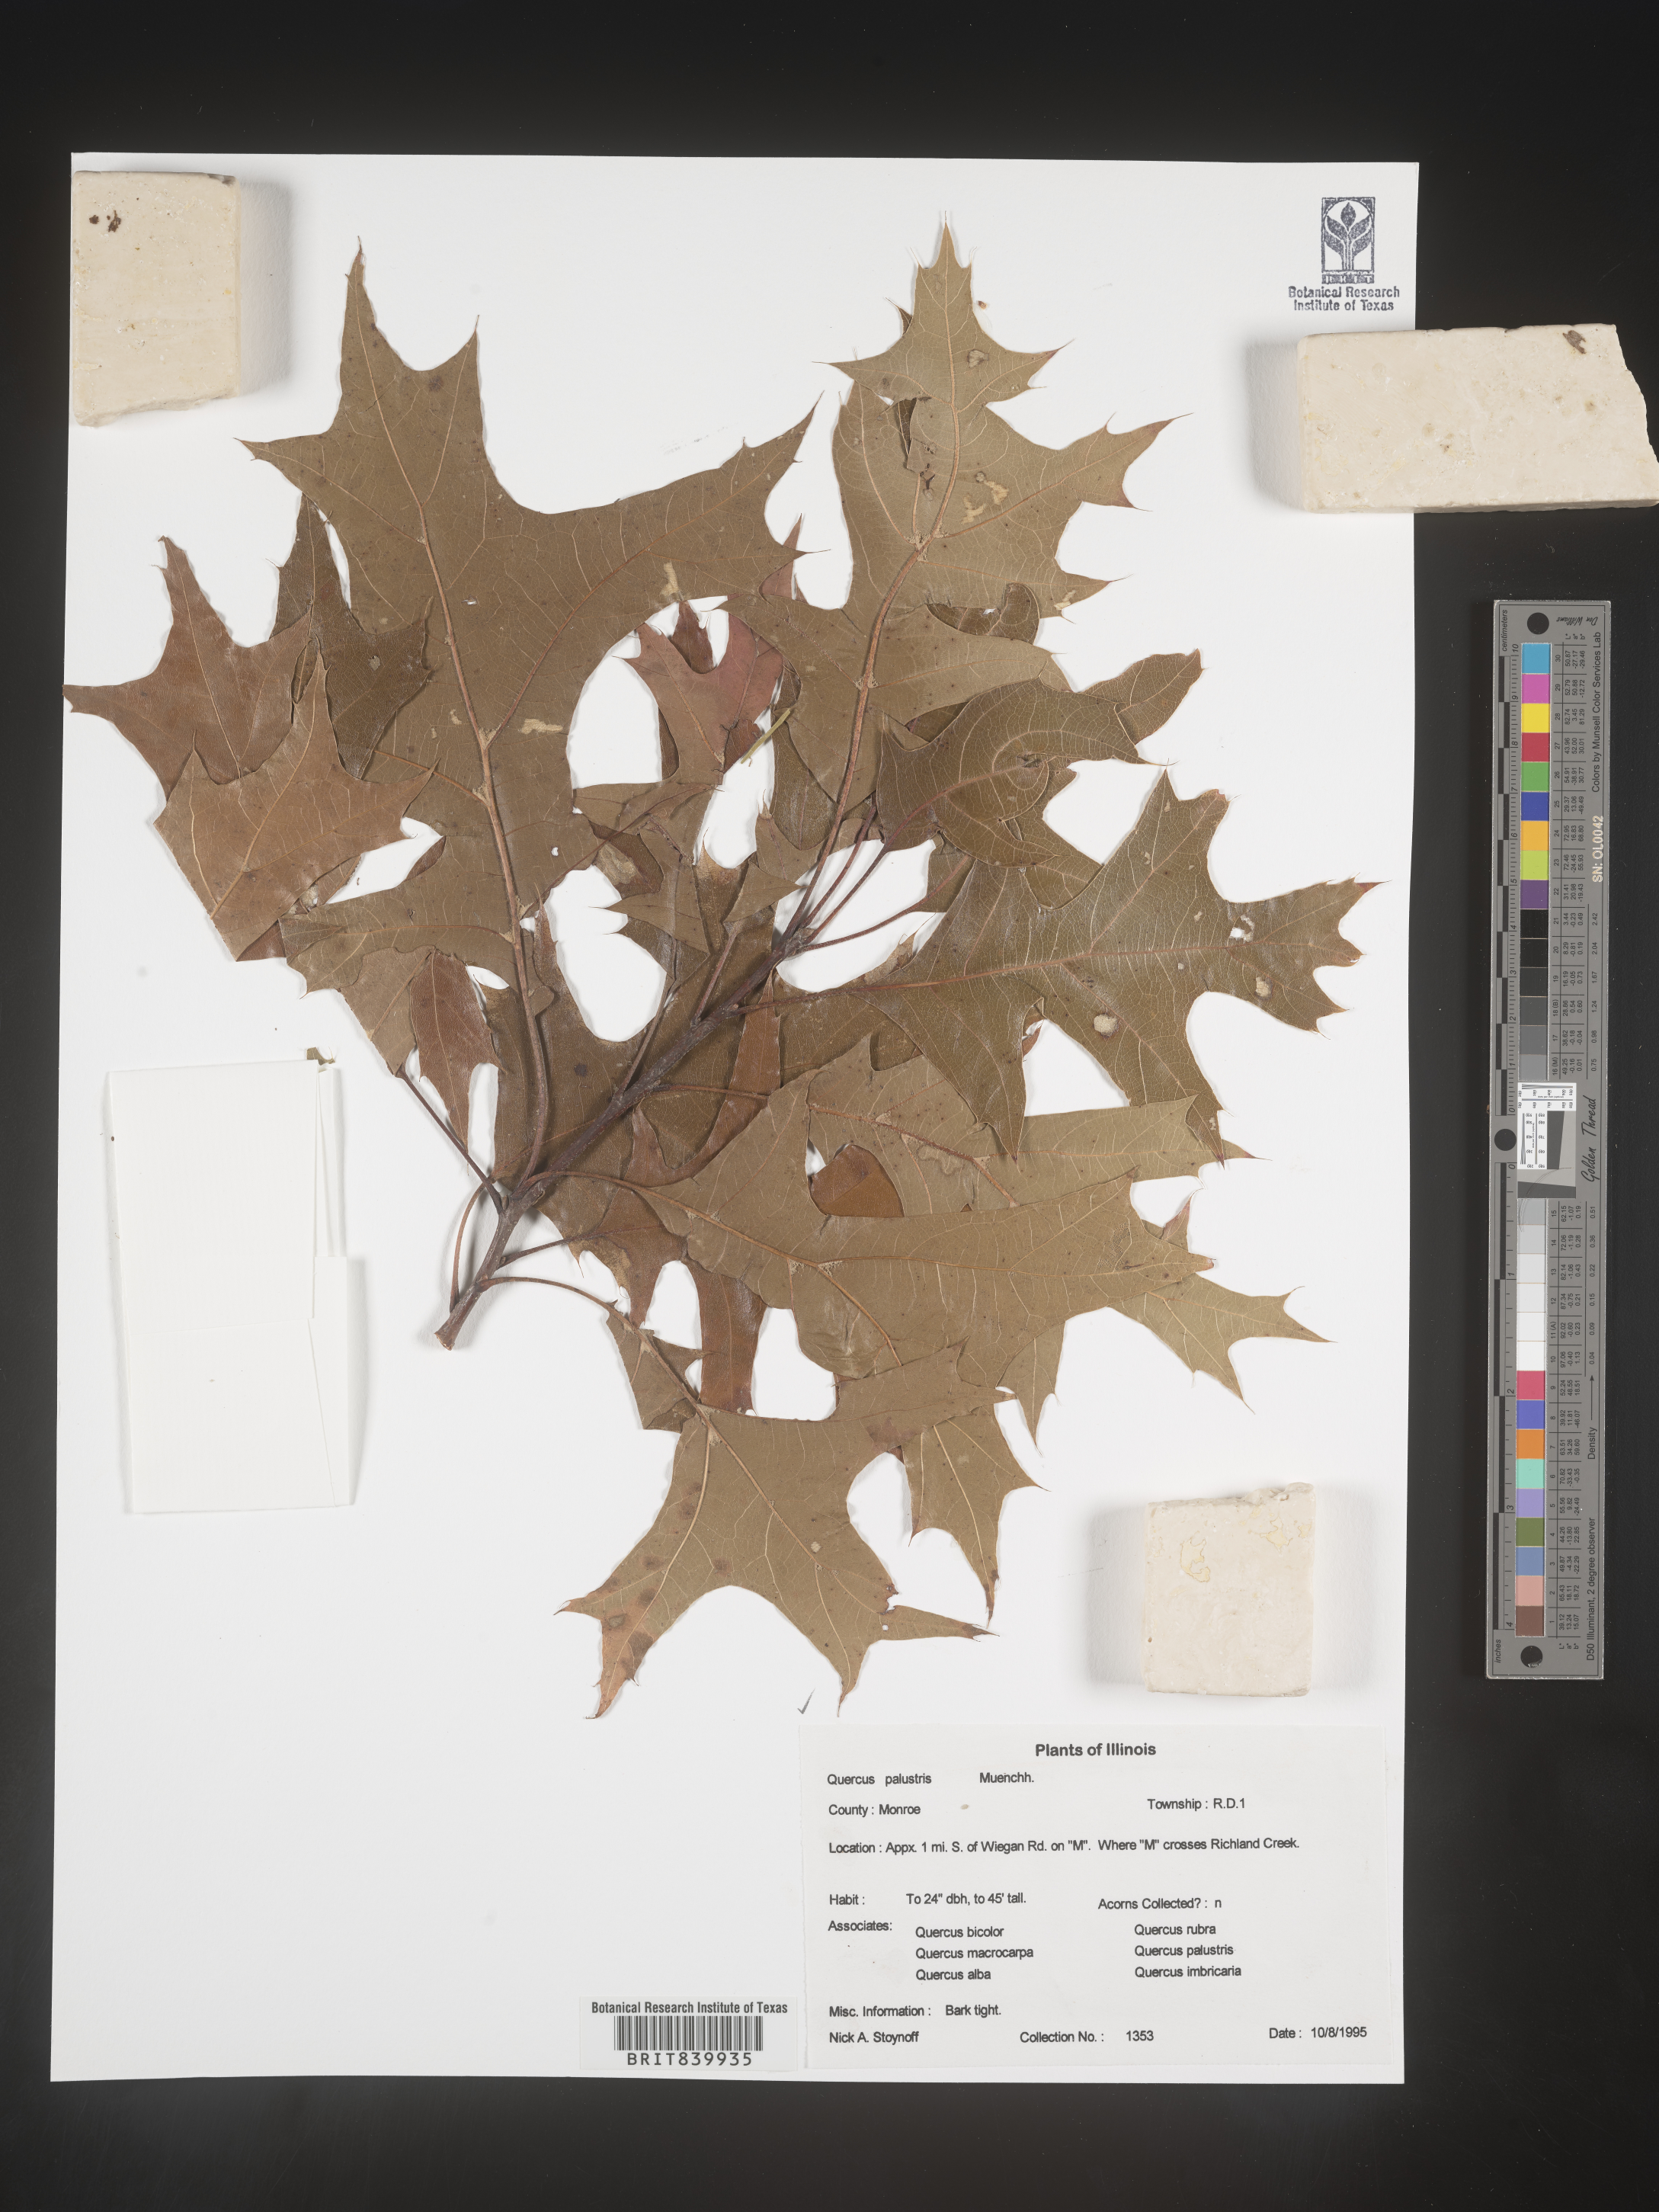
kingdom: Plantae
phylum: Tracheophyta
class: Magnoliopsida
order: Fagales
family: Fagaceae
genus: Quercus
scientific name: Quercus palustris
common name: Pin oak
